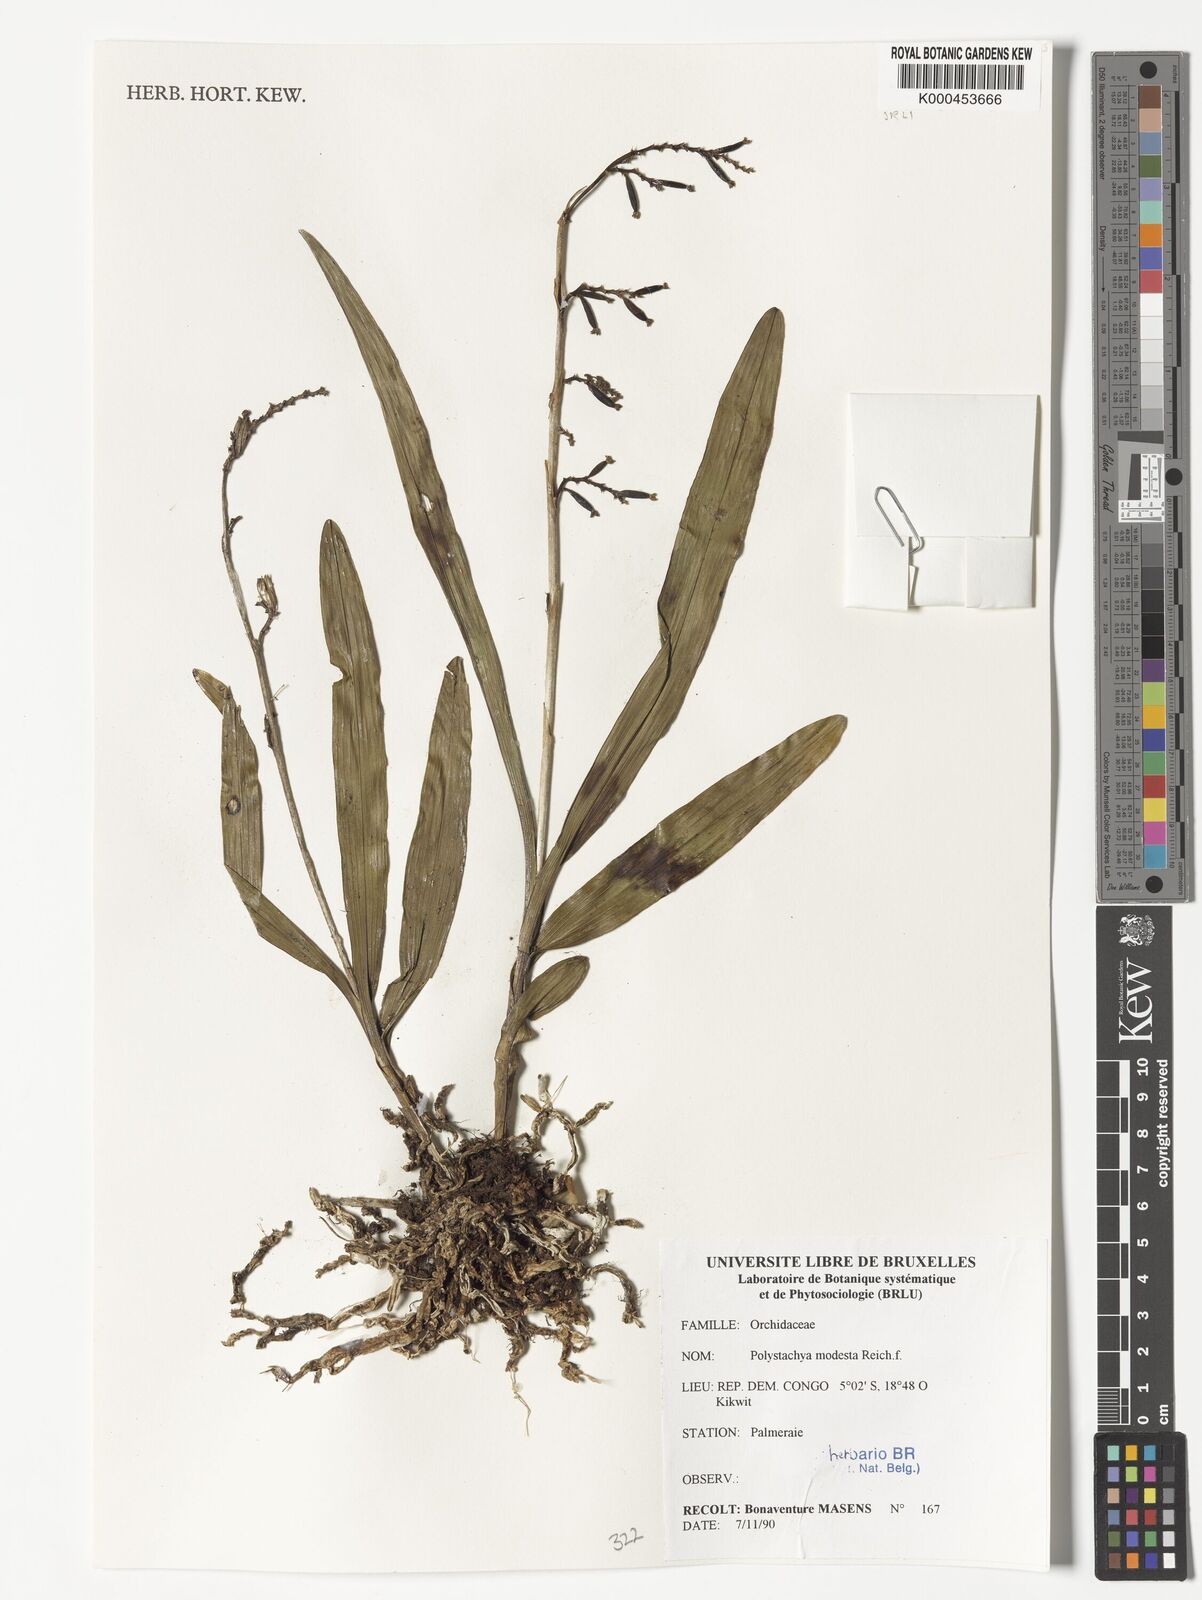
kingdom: Plantae
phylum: Tracheophyta
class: Liliopsida
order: Asparagales
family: Orchidaceae
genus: Polystachya
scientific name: Polystachya modesta
